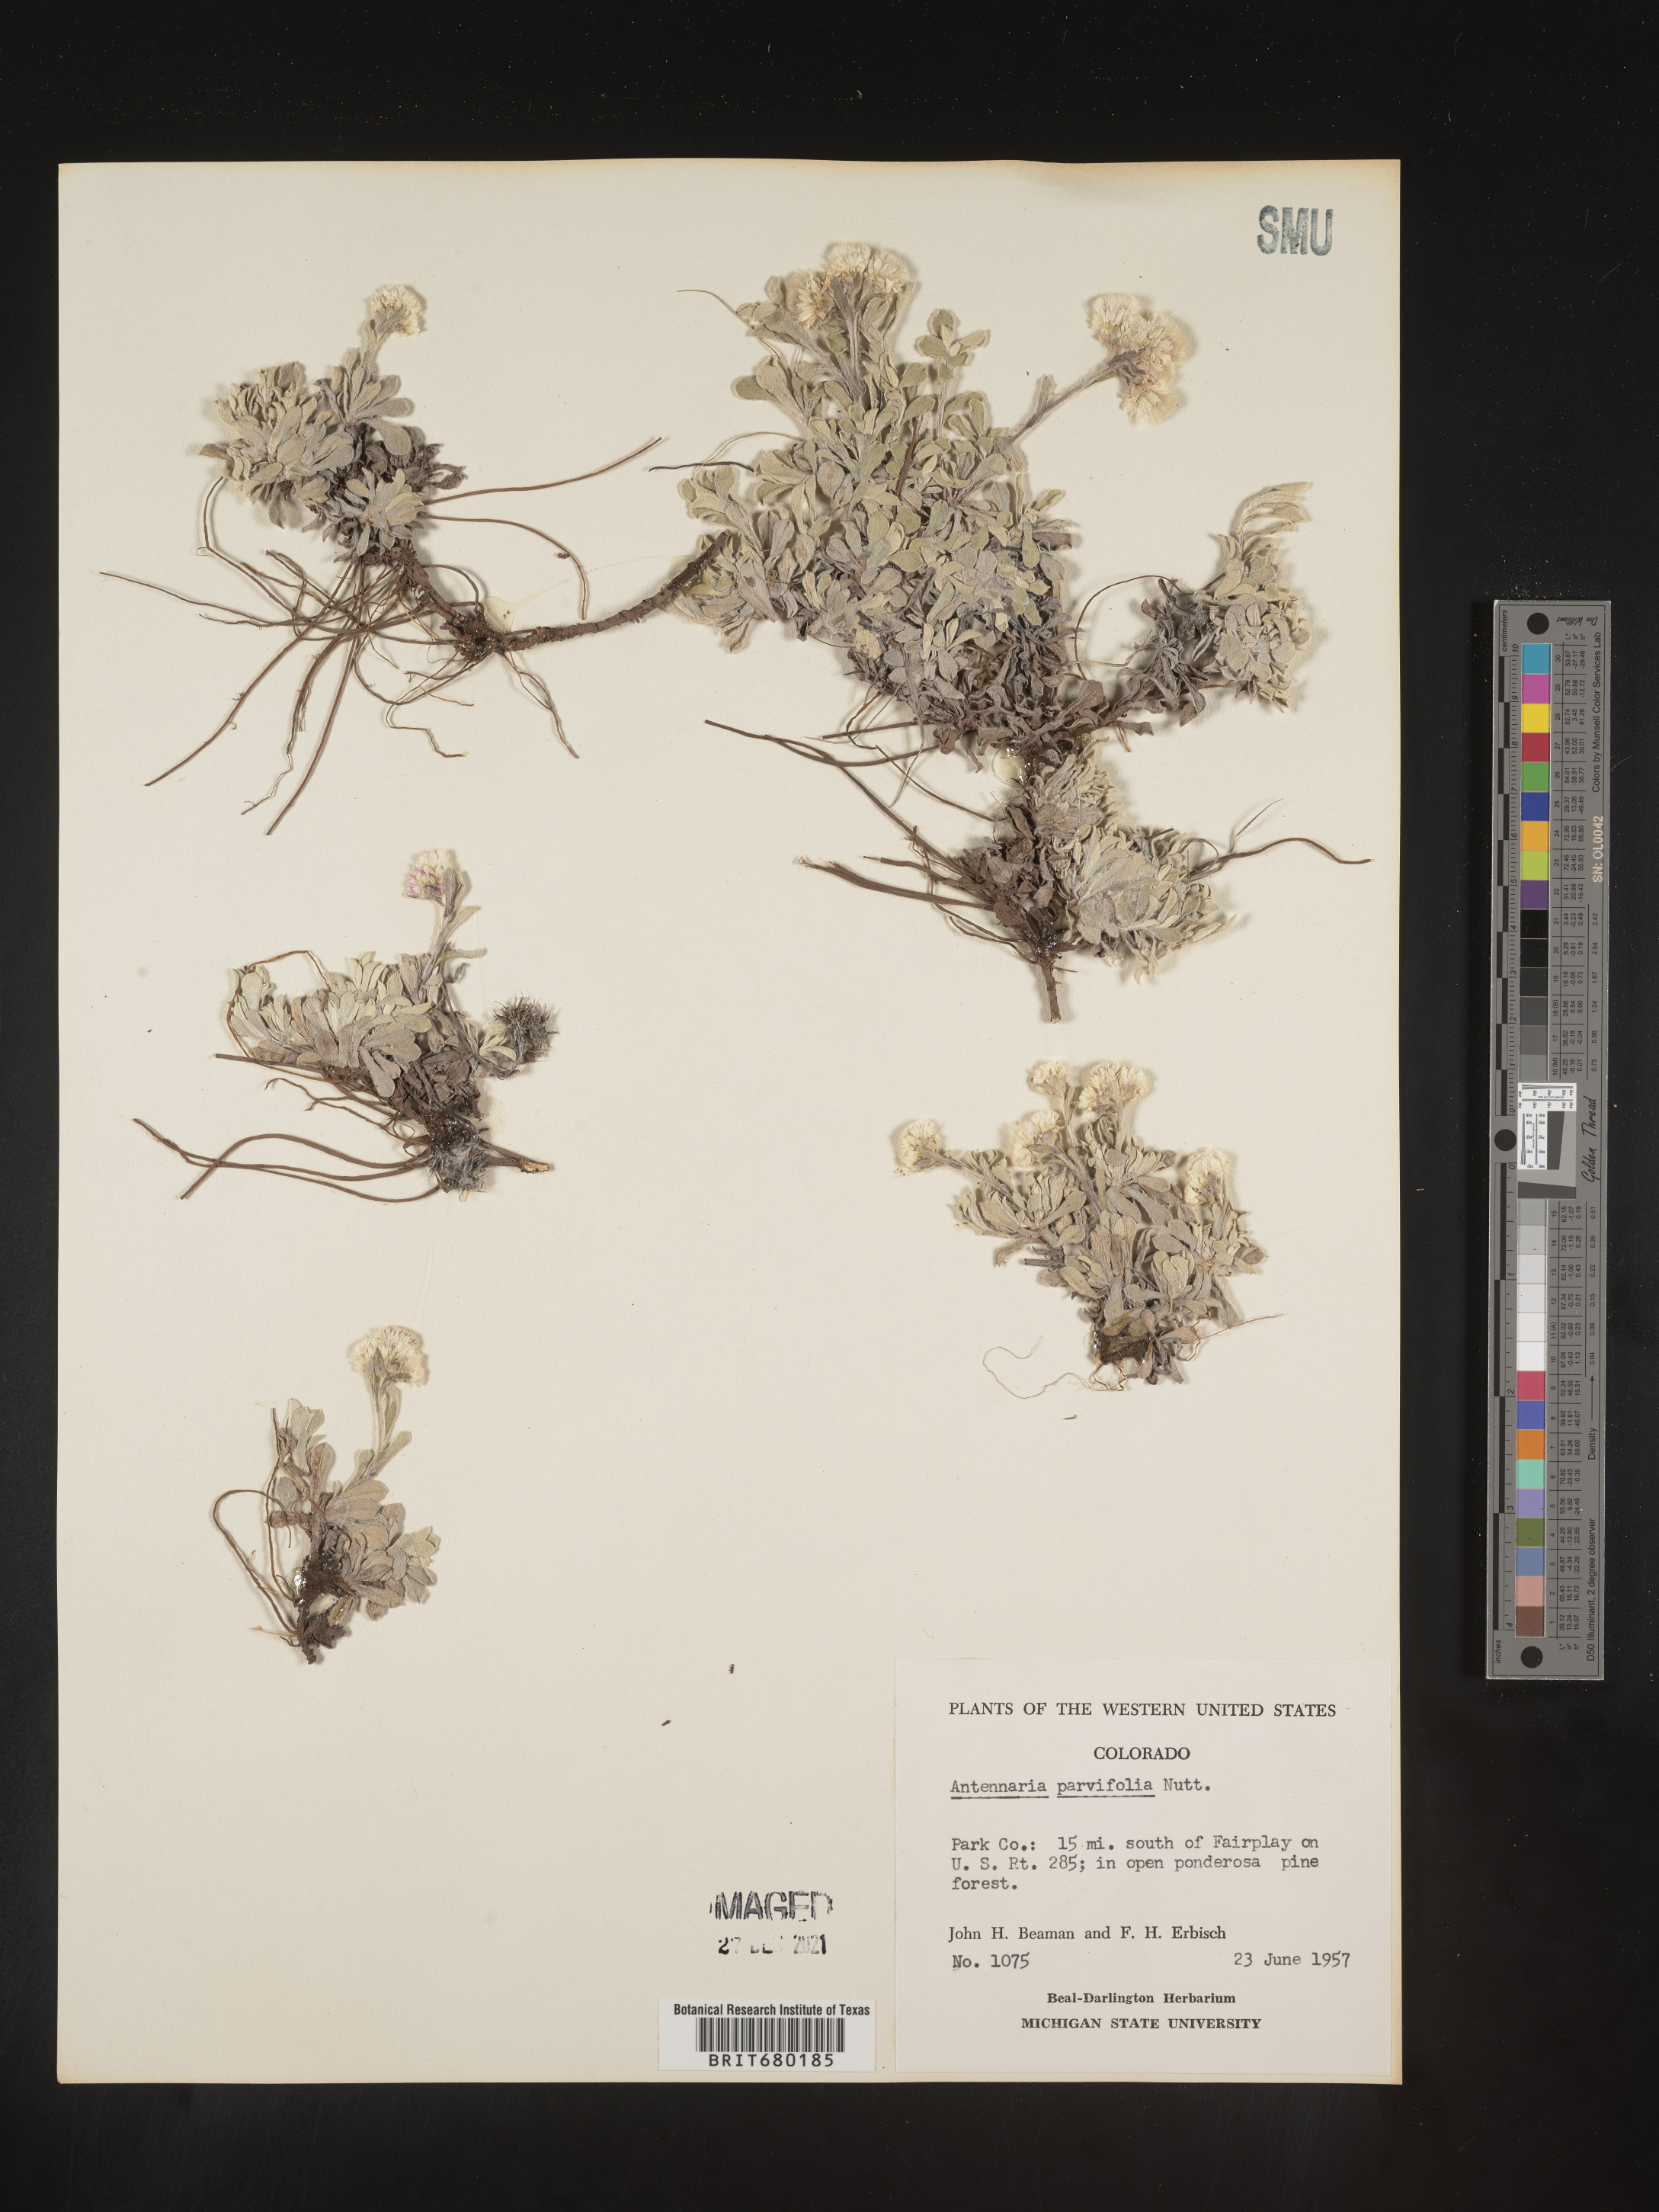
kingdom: Plantae
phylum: Tracheophyta
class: Magnoliopsida
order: Asterales
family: Asteraceae
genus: Antennaria
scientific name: Antennaria plantaginifolia
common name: Plantain-leaved pussytoes
